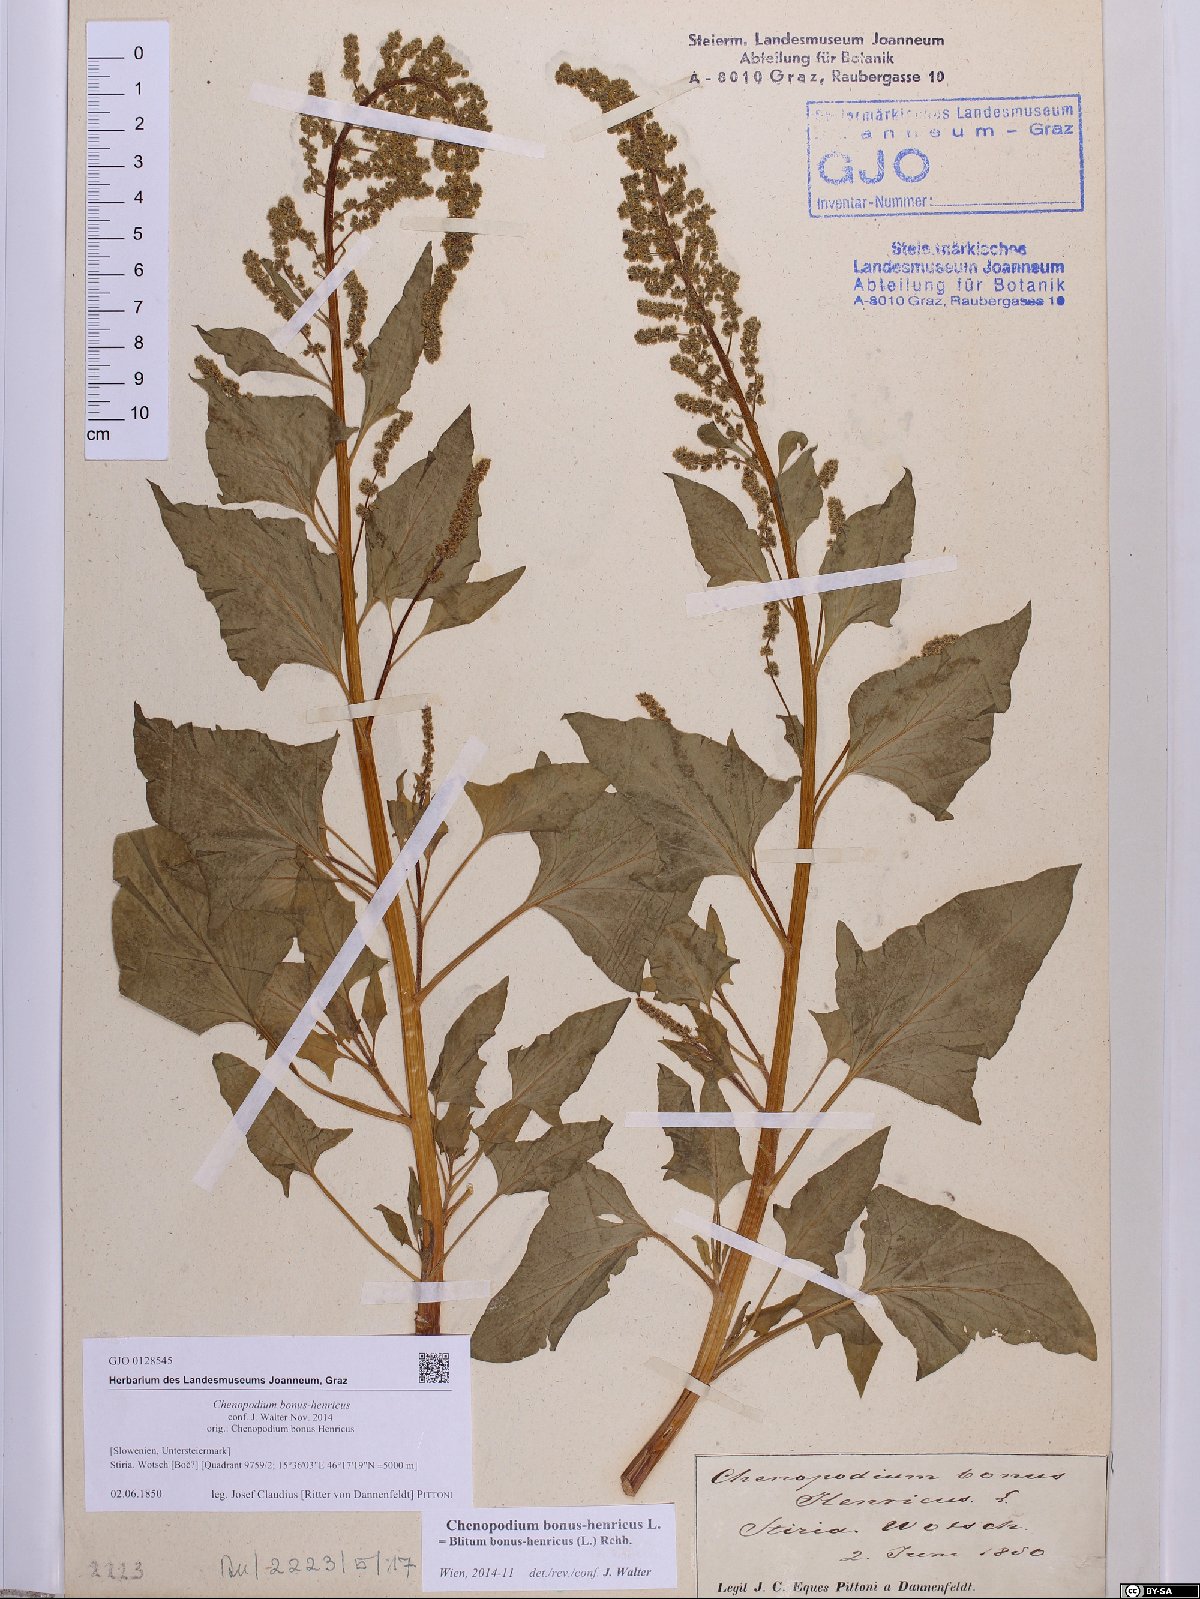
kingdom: Plantae
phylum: Tracheophyta
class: Magnoliopsida
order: Caryophyllales
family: Amaranthaceae
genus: Blitum
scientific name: Blitum bonus-henricus
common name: Good king henry
